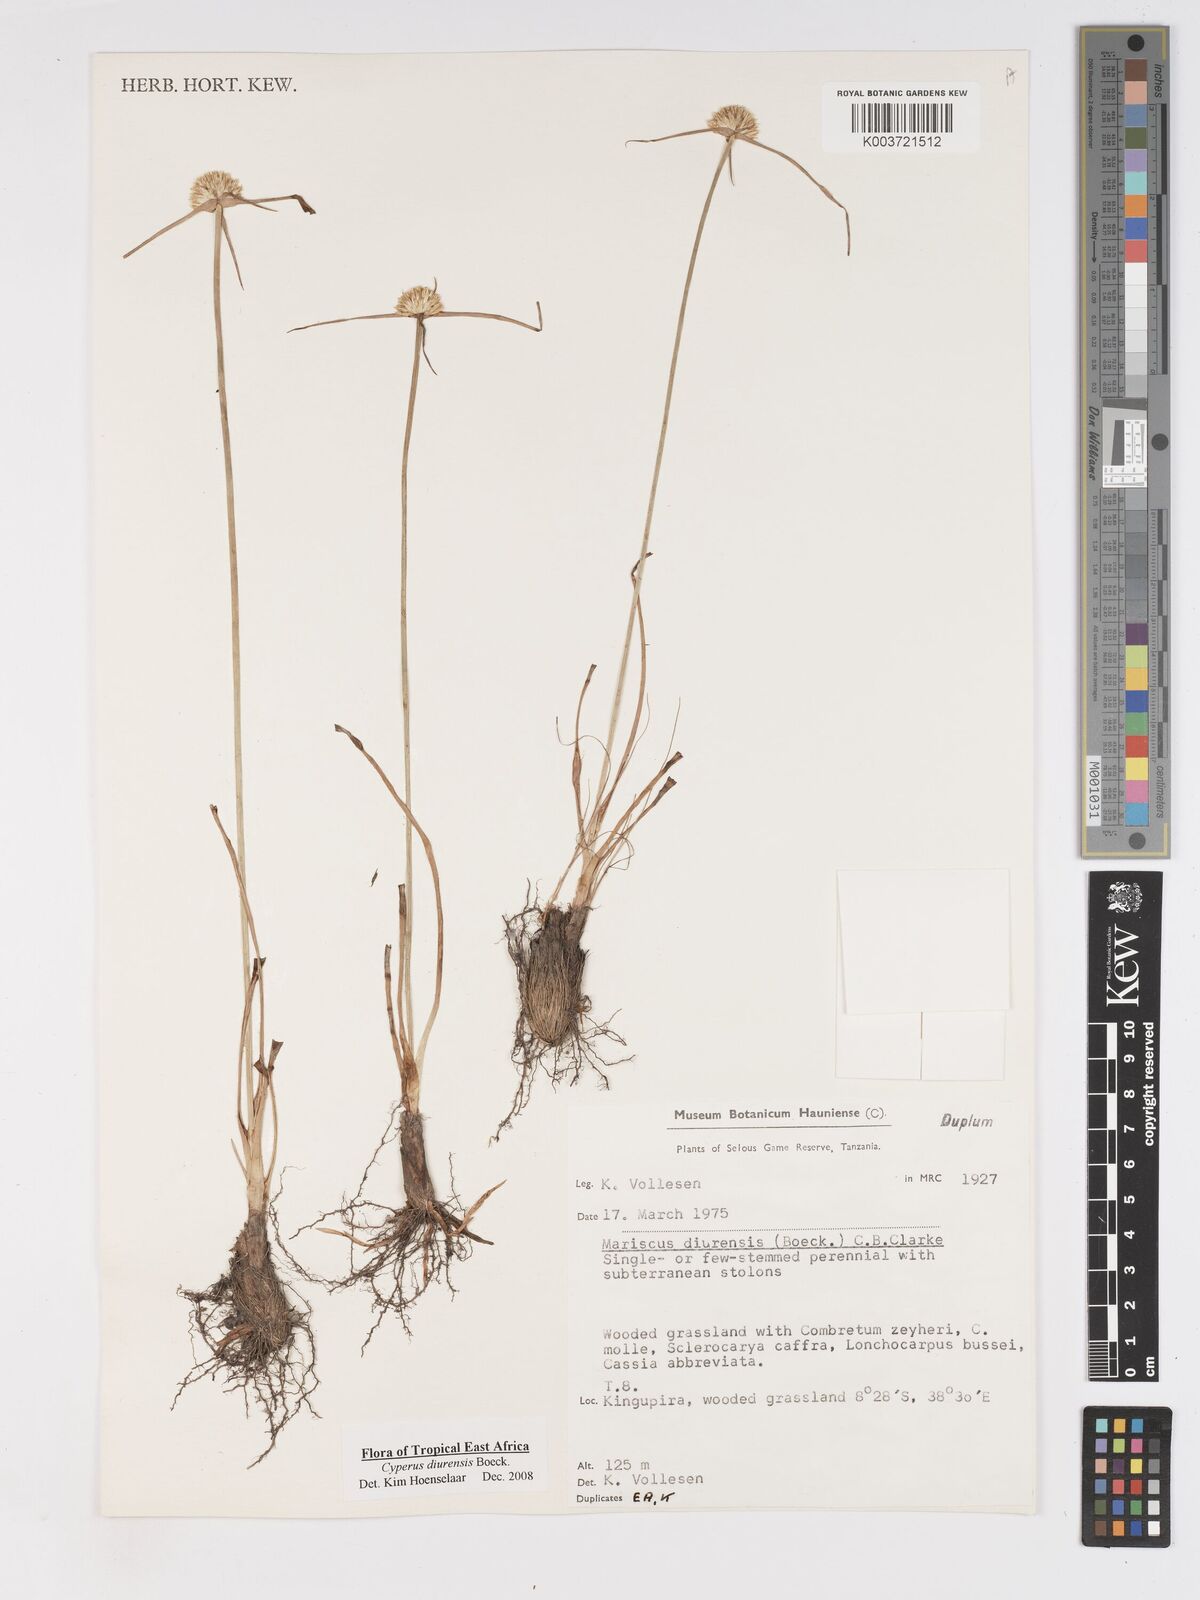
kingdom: Plantae
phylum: Tracheophyta
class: Liliopsida
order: Poales
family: Cyperaceae
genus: Cyperus
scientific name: Cyperus diurensis
